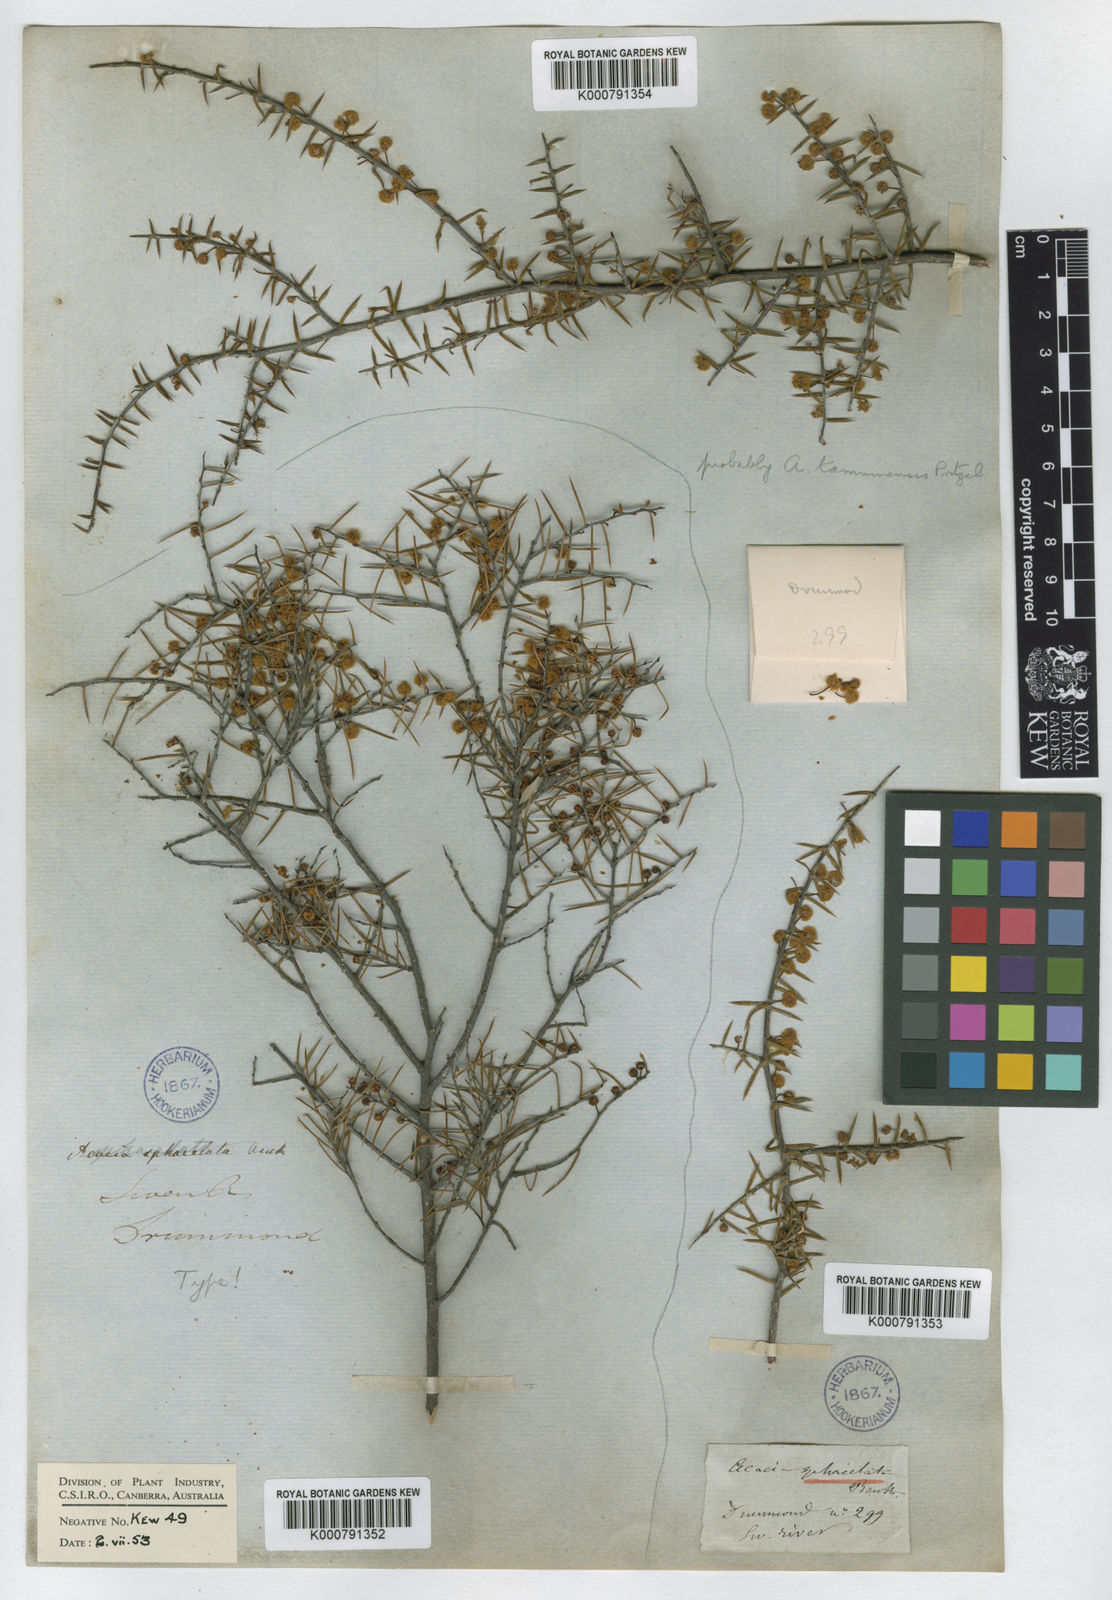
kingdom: Plantae
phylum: Tracheophyta
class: Magnoliopsida
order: Fabales
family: Fabaceae
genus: Acacia
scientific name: Acacia sphacelata
